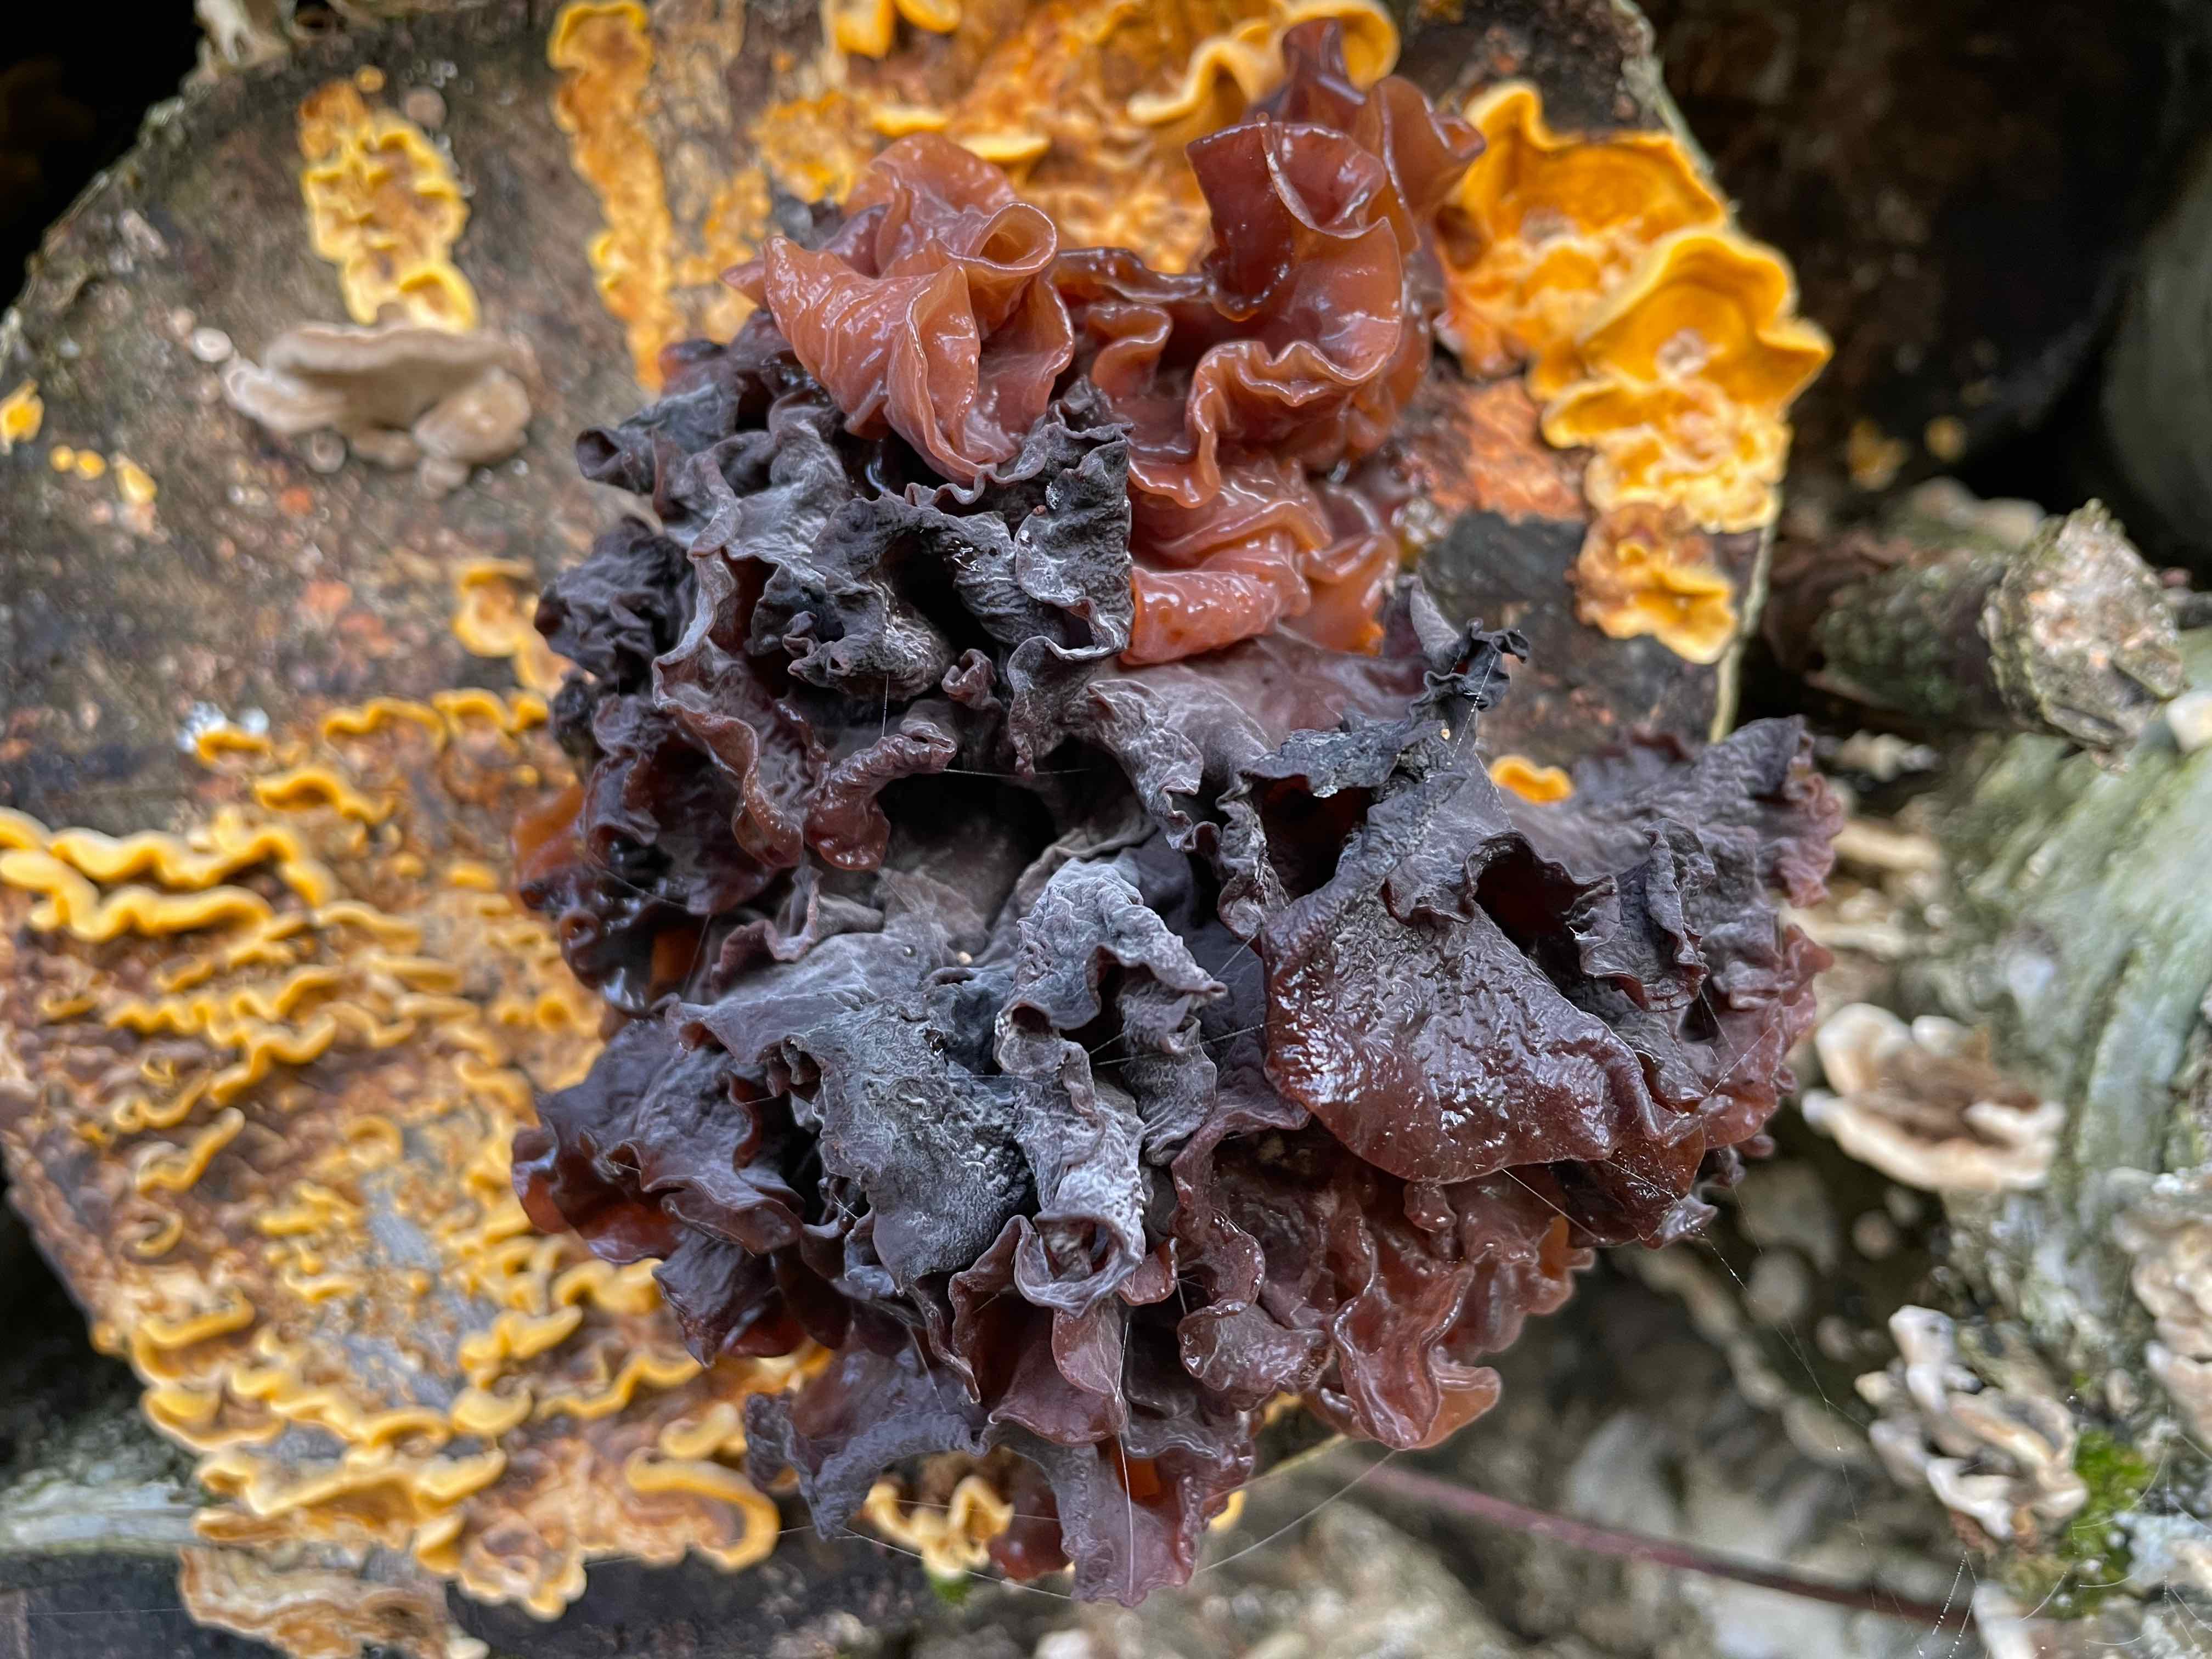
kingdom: Fungi
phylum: Basidiomycota
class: Tremellomycetes
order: Tremellales
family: Tremellaceae
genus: Phaeotremella
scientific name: Phaeotremella frondosa
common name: kæmpe-bævresvamp
